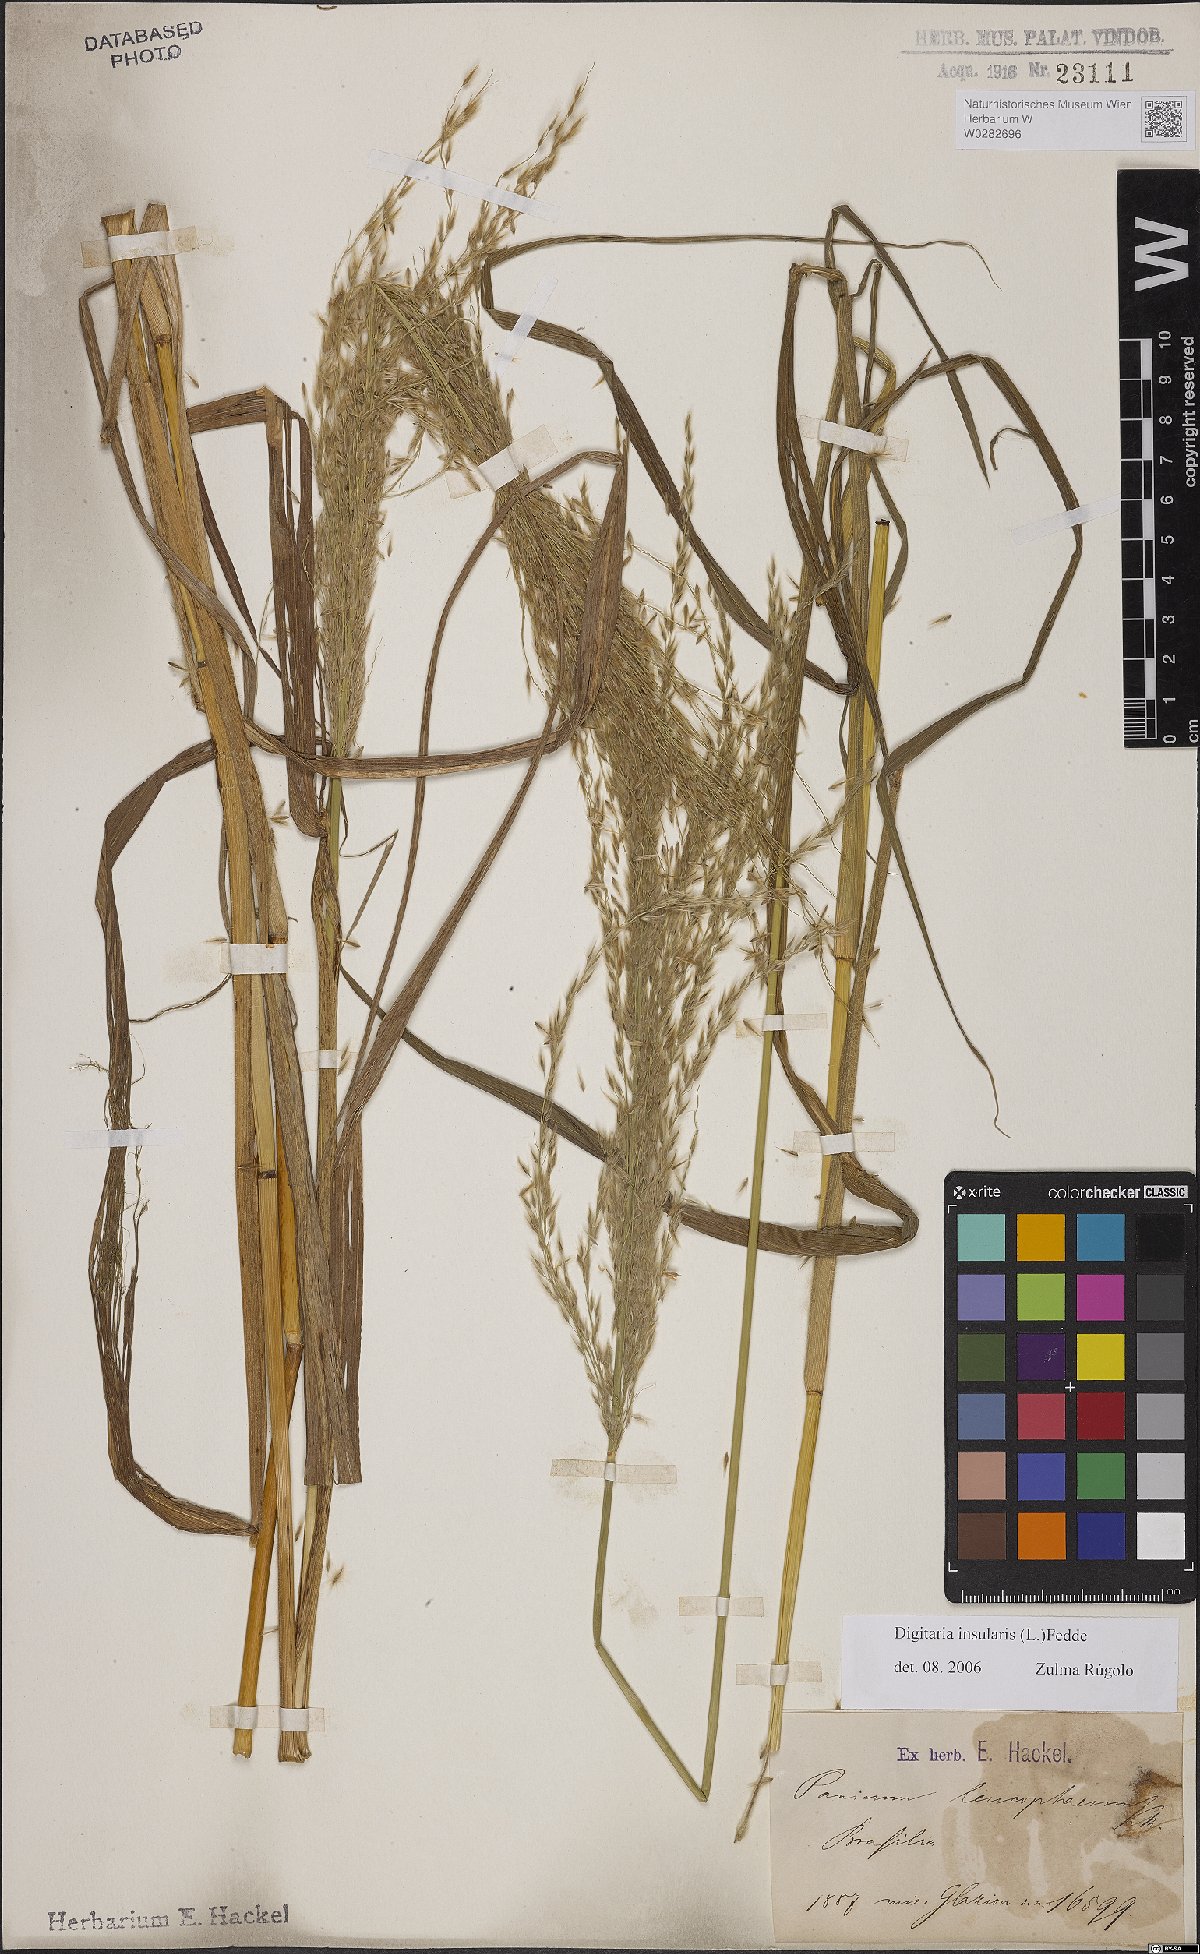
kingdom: Plantae
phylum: Tracheophyta
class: Liliopsida
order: Poales
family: Poaceae
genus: Digitaria
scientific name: Digitaria insularis
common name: Sourgrass
